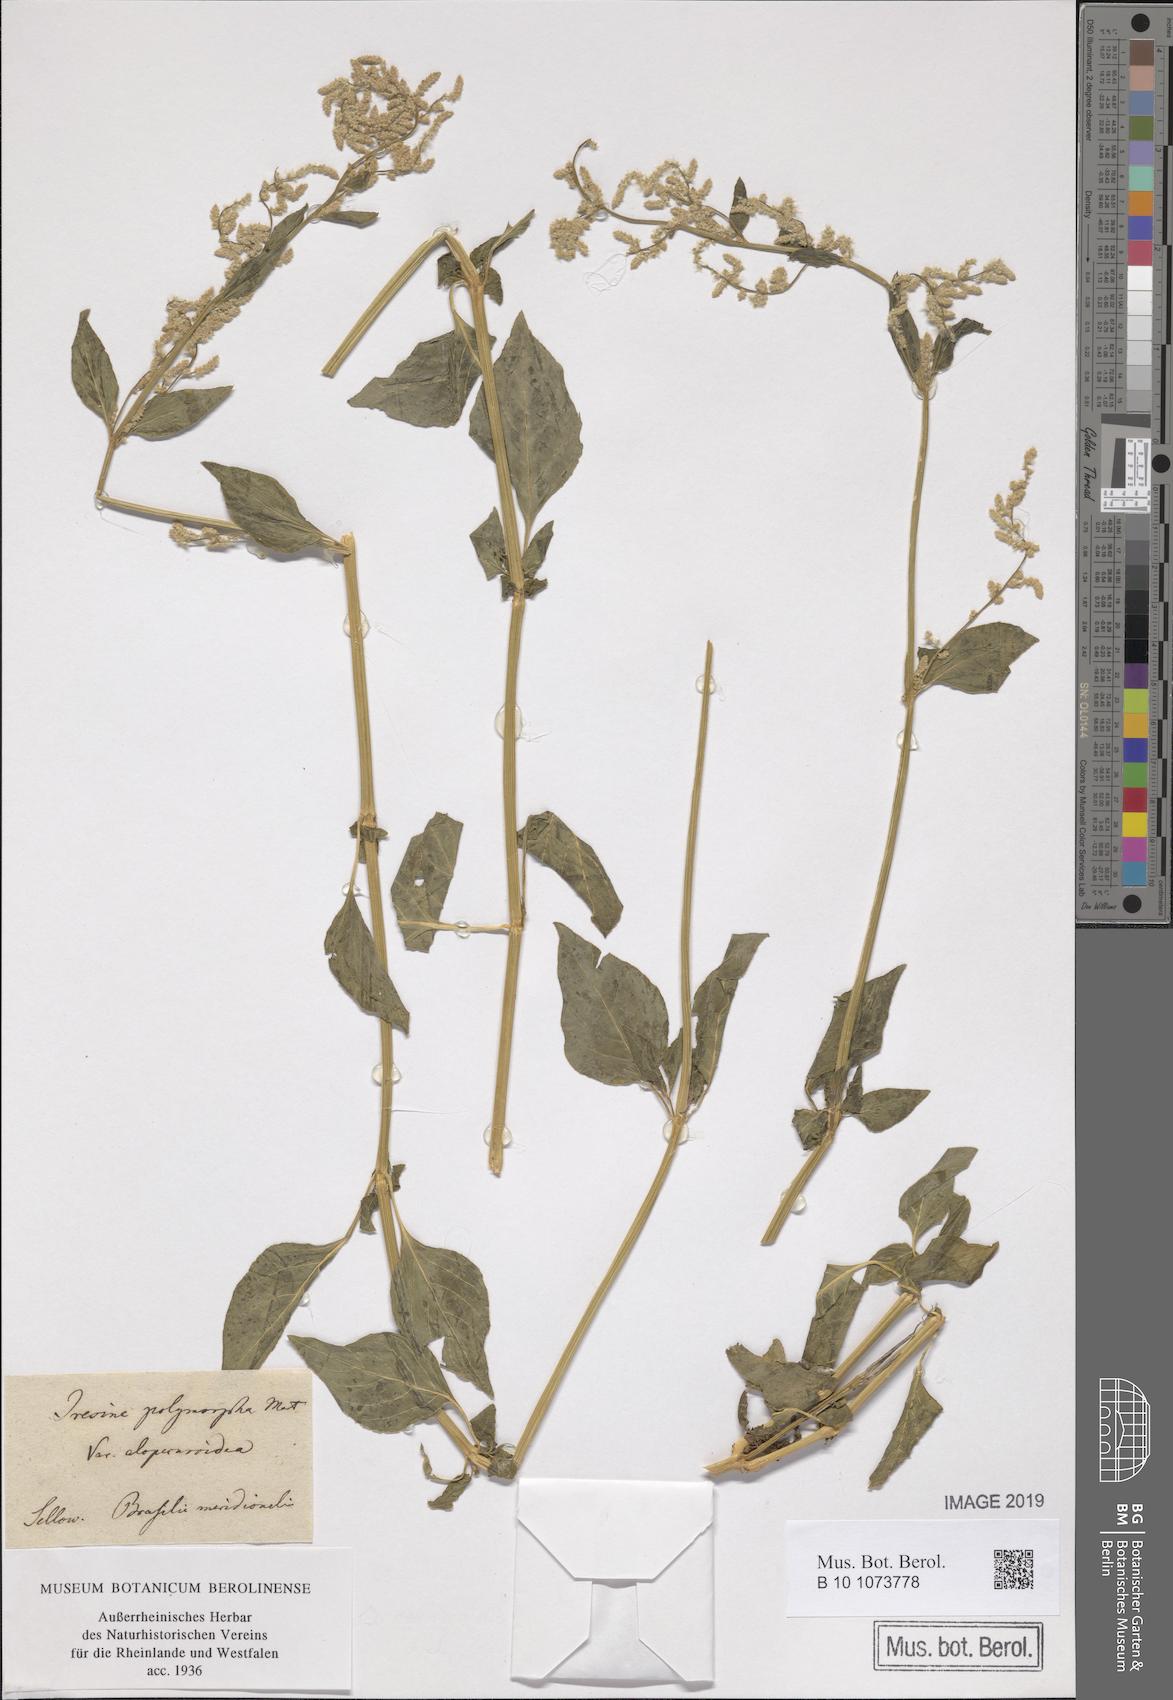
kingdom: Plantae
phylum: Tracheophyta
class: Magnoliopsida
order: Caryophyllales
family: Amaranthaceae
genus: Iresine
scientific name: Iresine diffusa
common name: Juba's-bush
